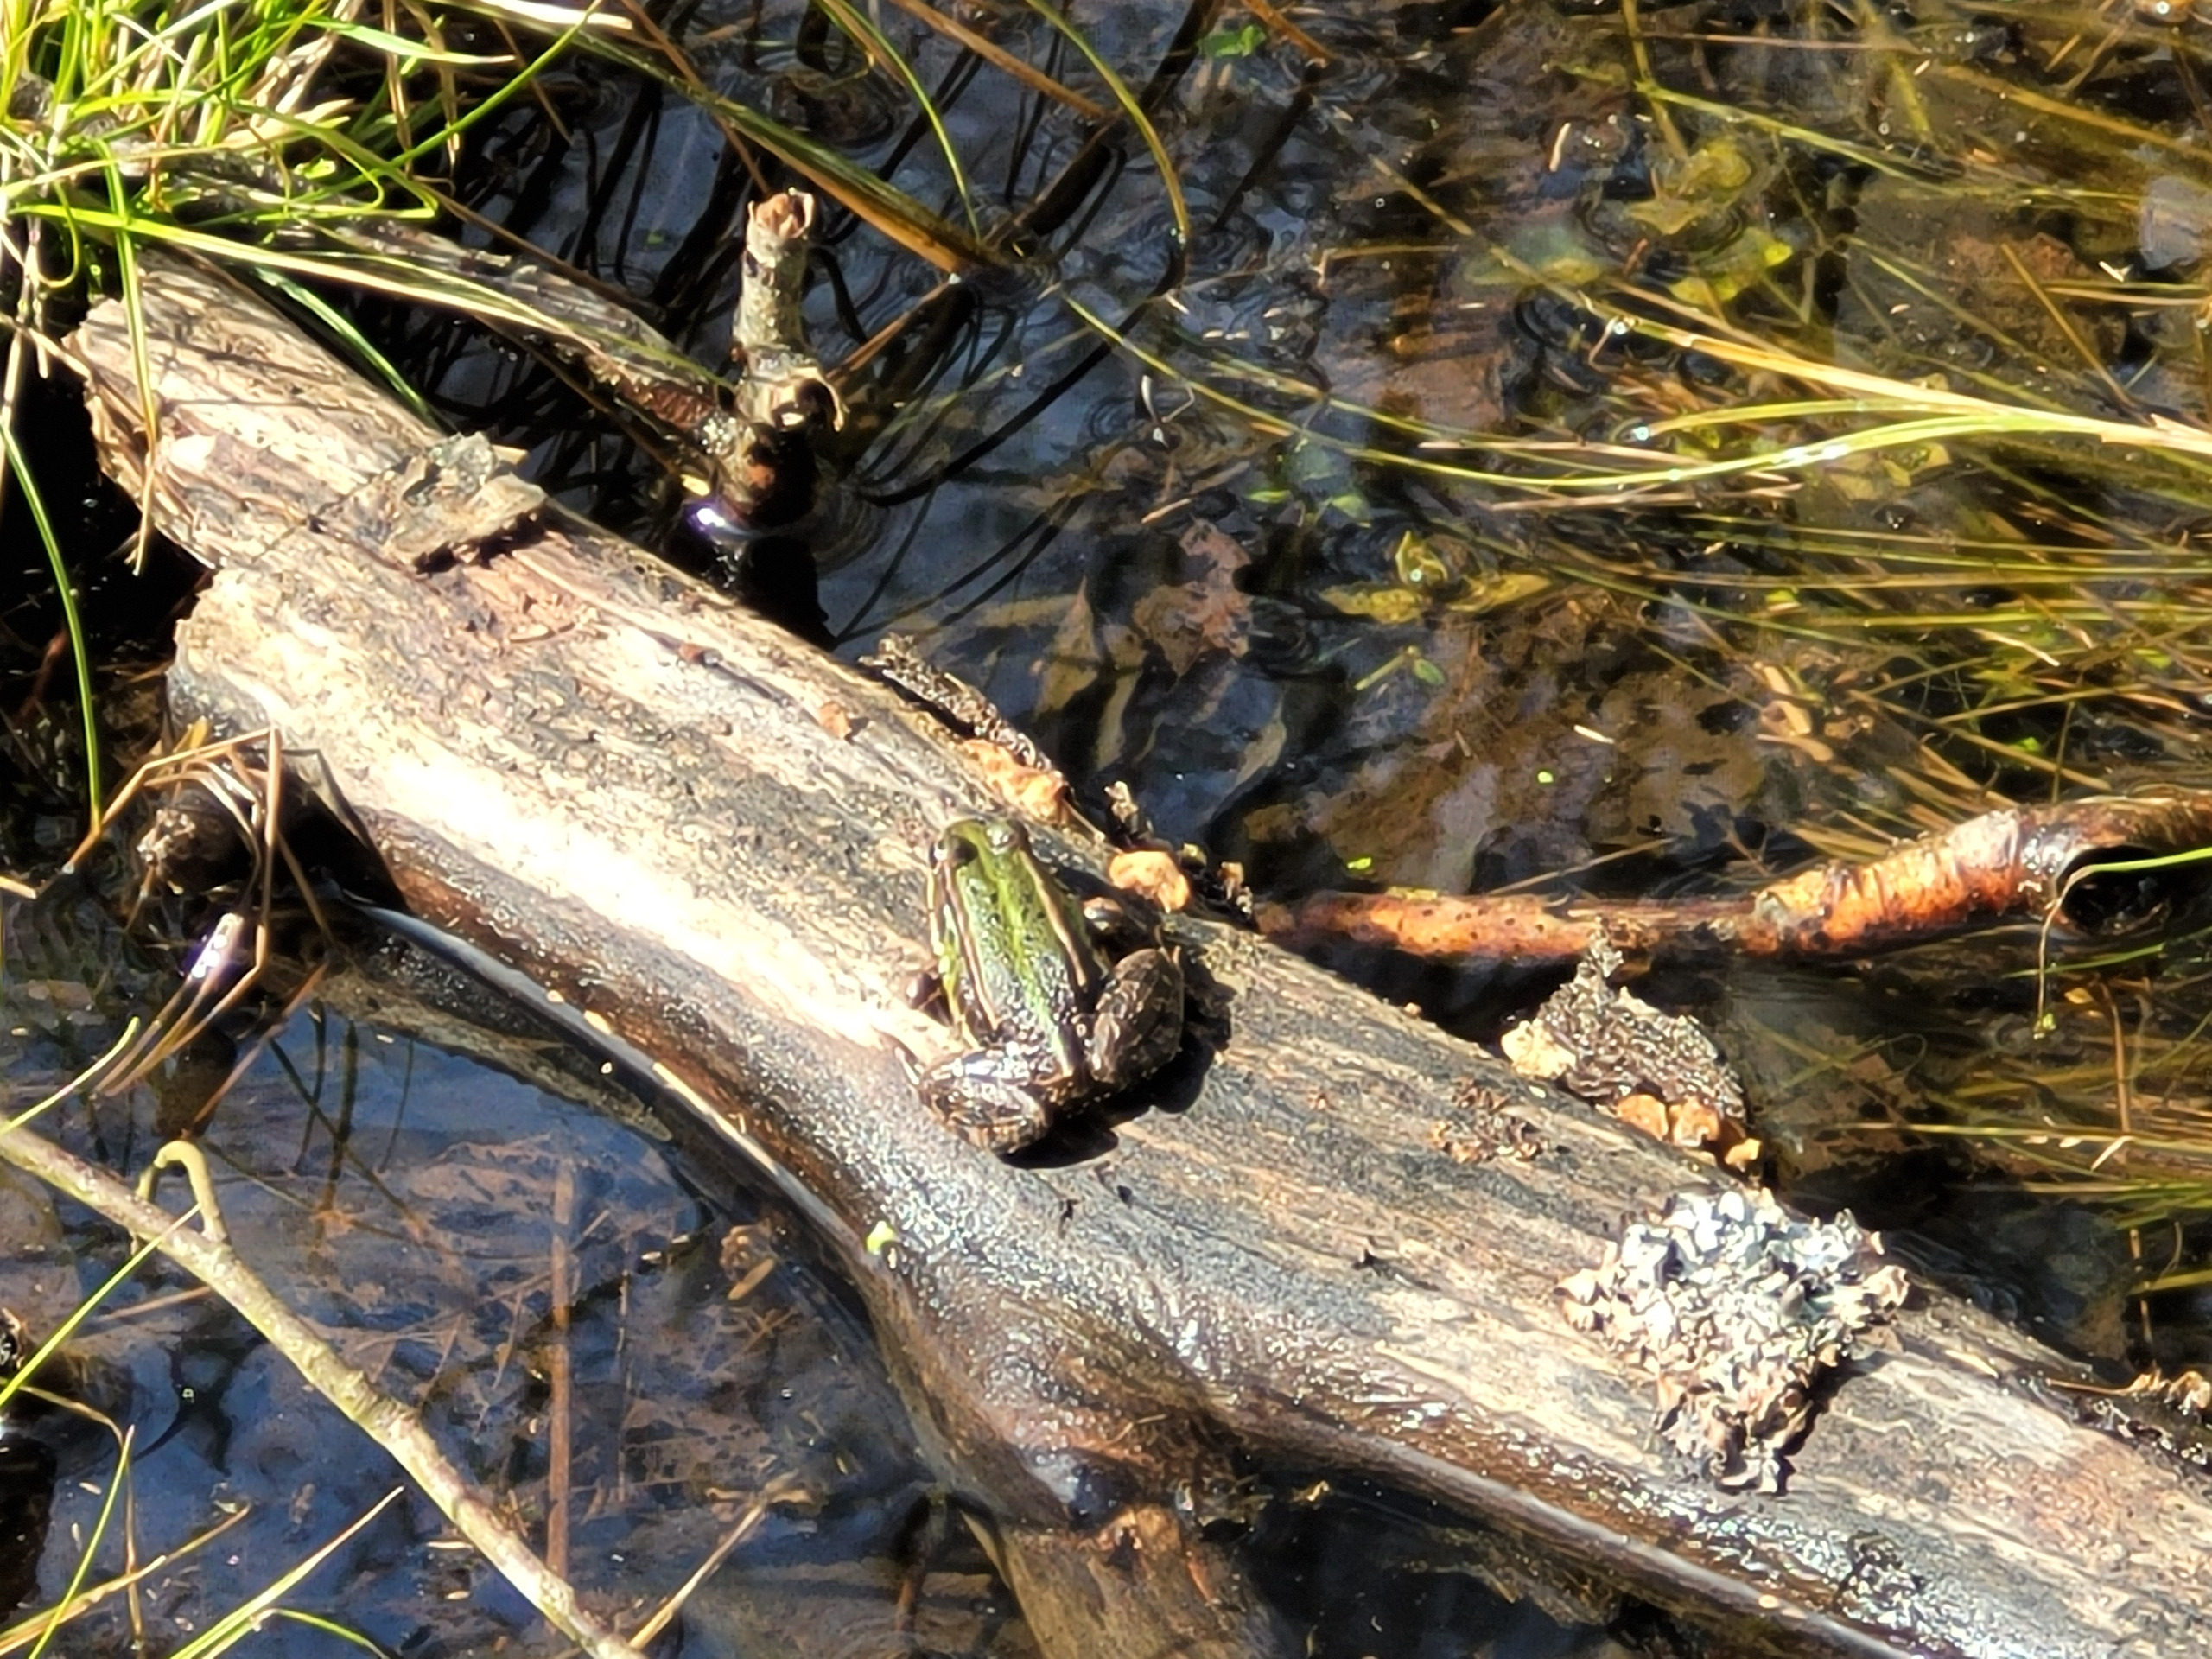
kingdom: Animalia
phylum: Chordata
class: Amphibia
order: Anura
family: Ranidae
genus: Pelophylax
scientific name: Pelophylax lessonae
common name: Grøn frø
